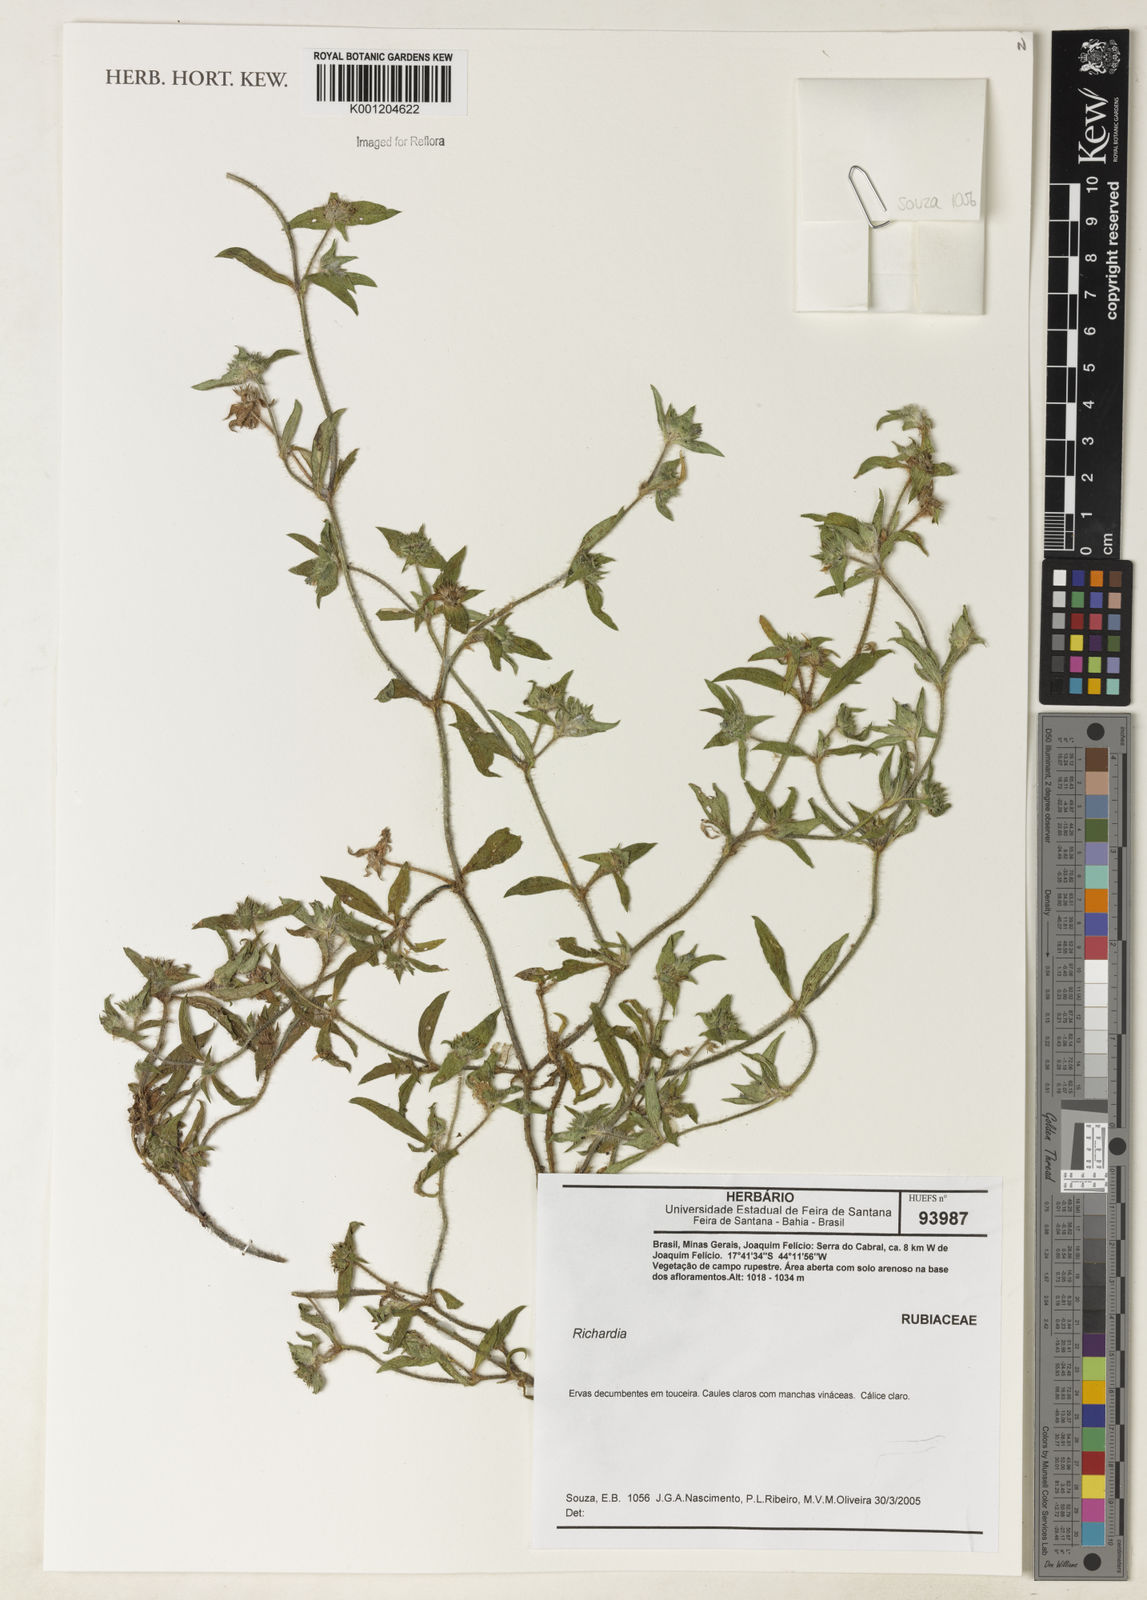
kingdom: Plantae
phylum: Tracheophyta
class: Magnoliopsida
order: Gentianales
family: Rubiaceae
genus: Richardia
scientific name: Richardia
